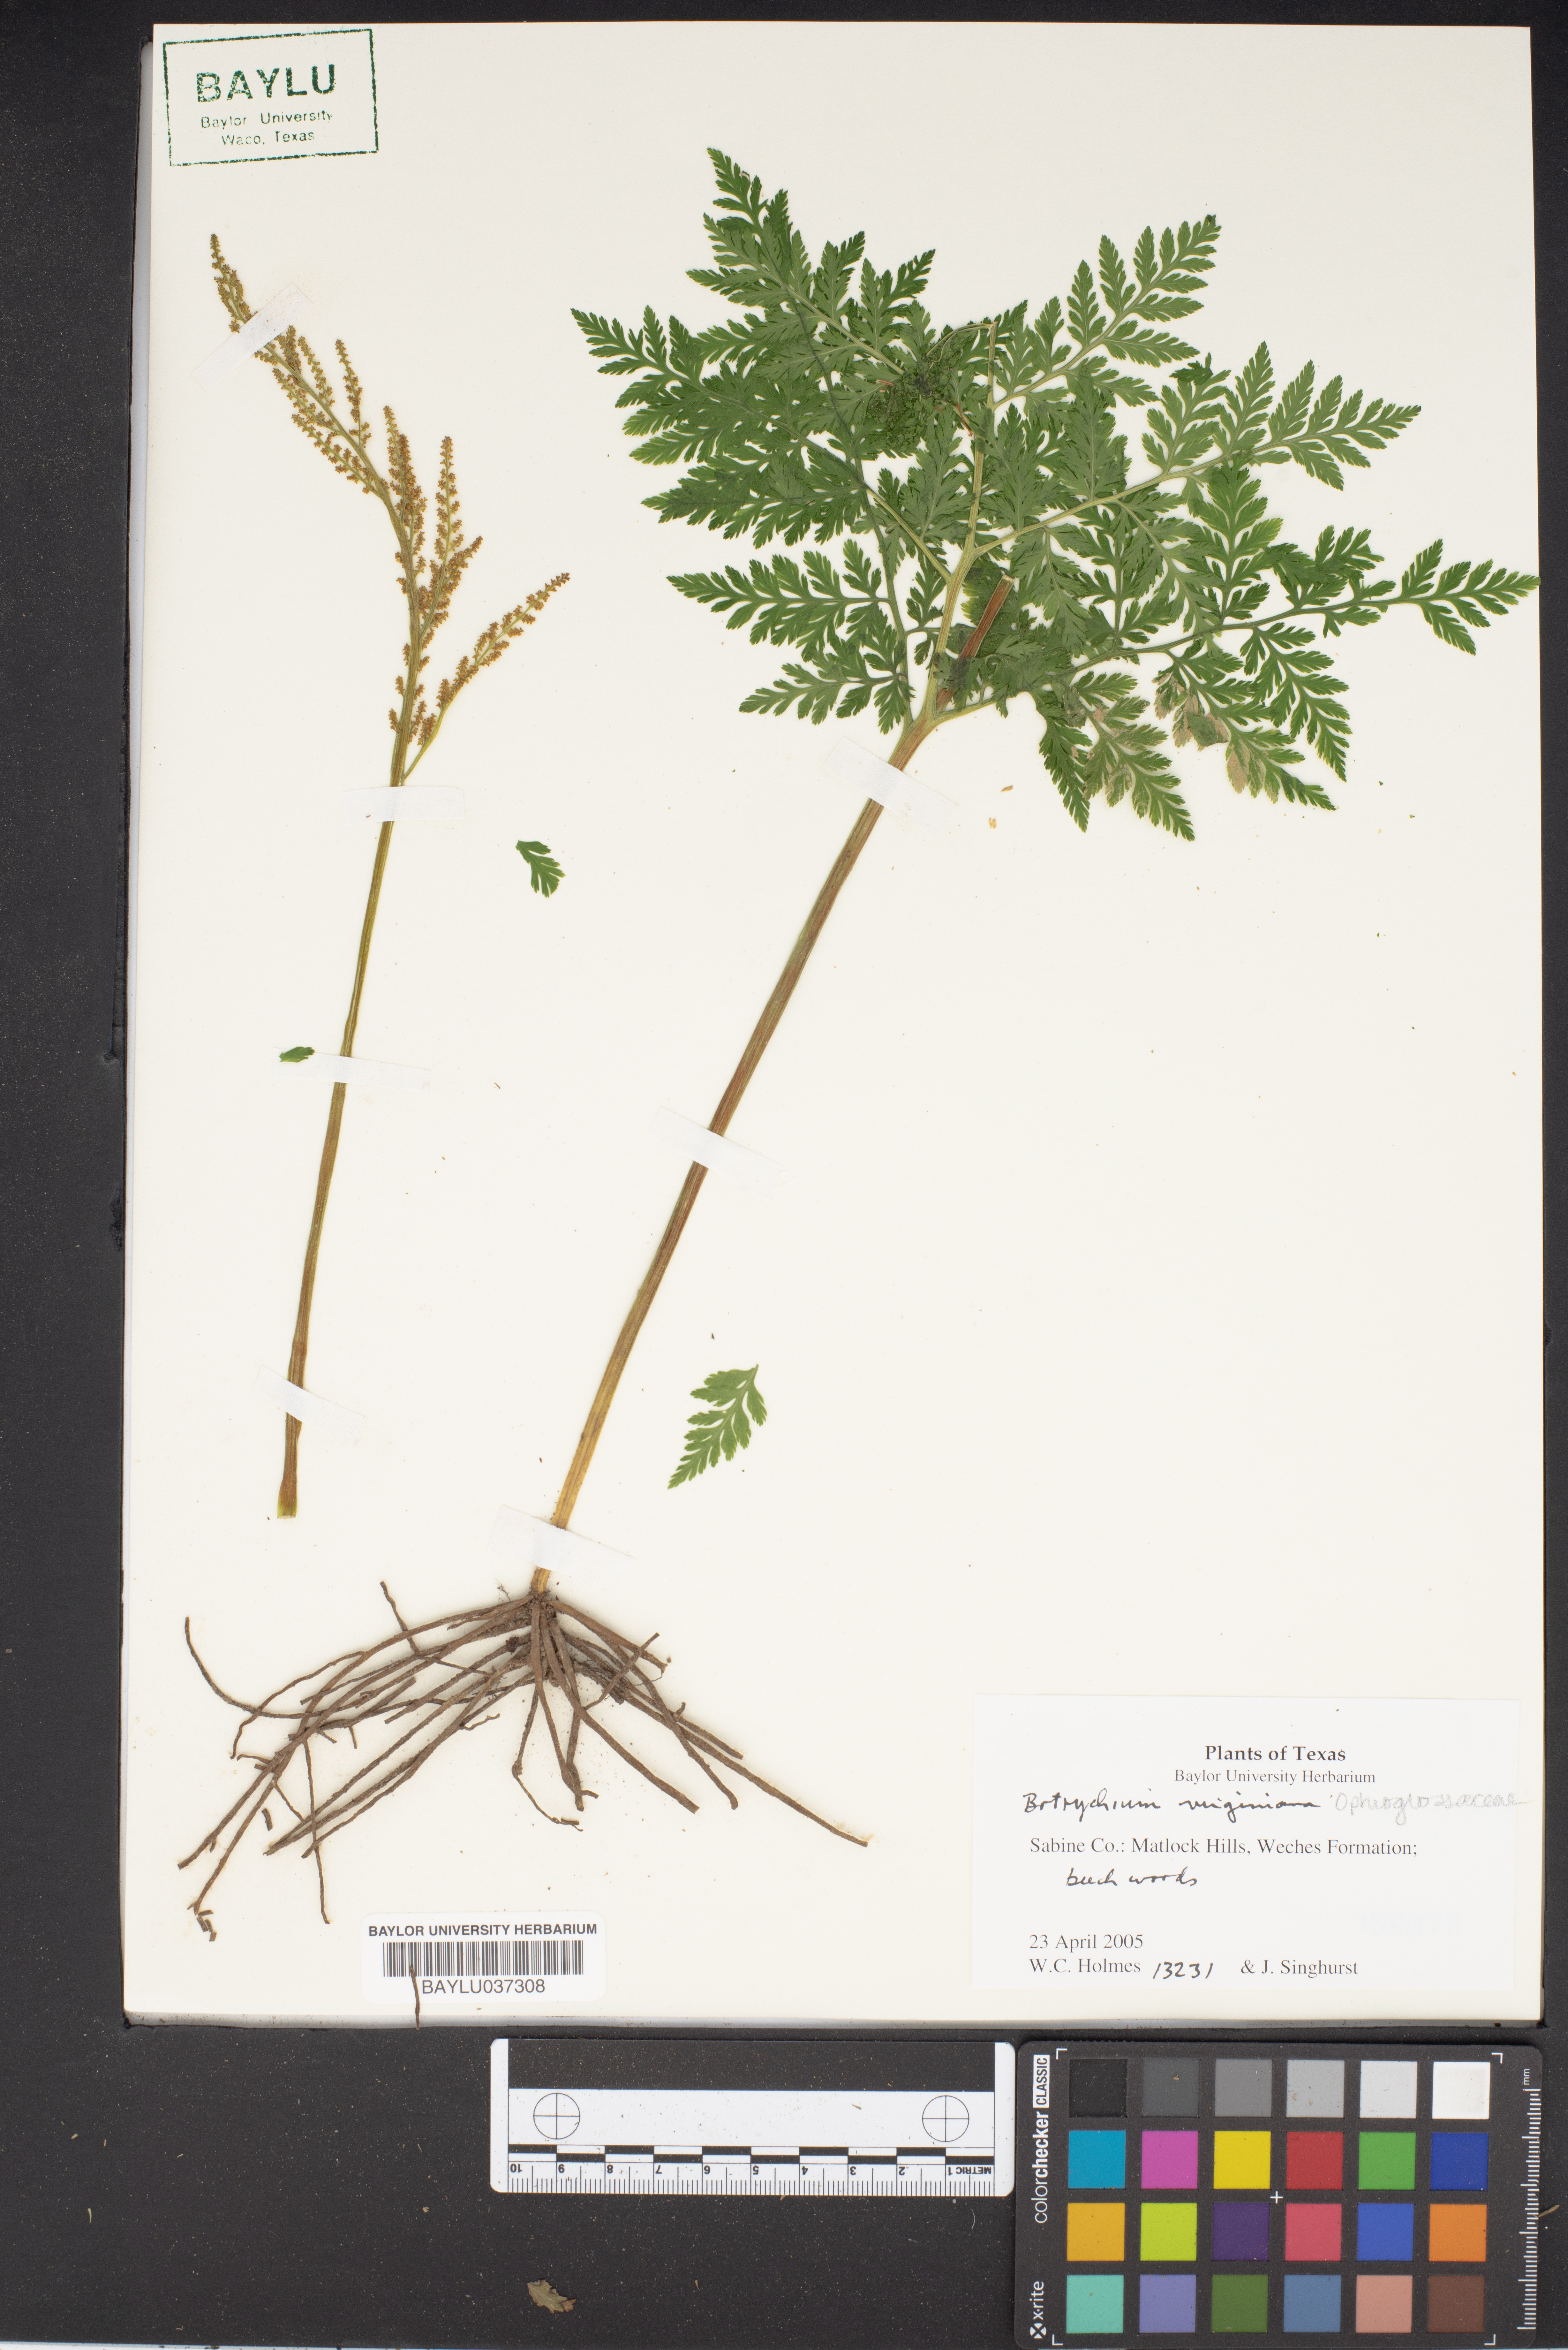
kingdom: Plantae
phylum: Tracheophyta
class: Polypodiopsida
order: Ophioglossales
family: Ophioglossaceae
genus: Botrypus
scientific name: Botrypus virginianus
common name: Common grapefern
